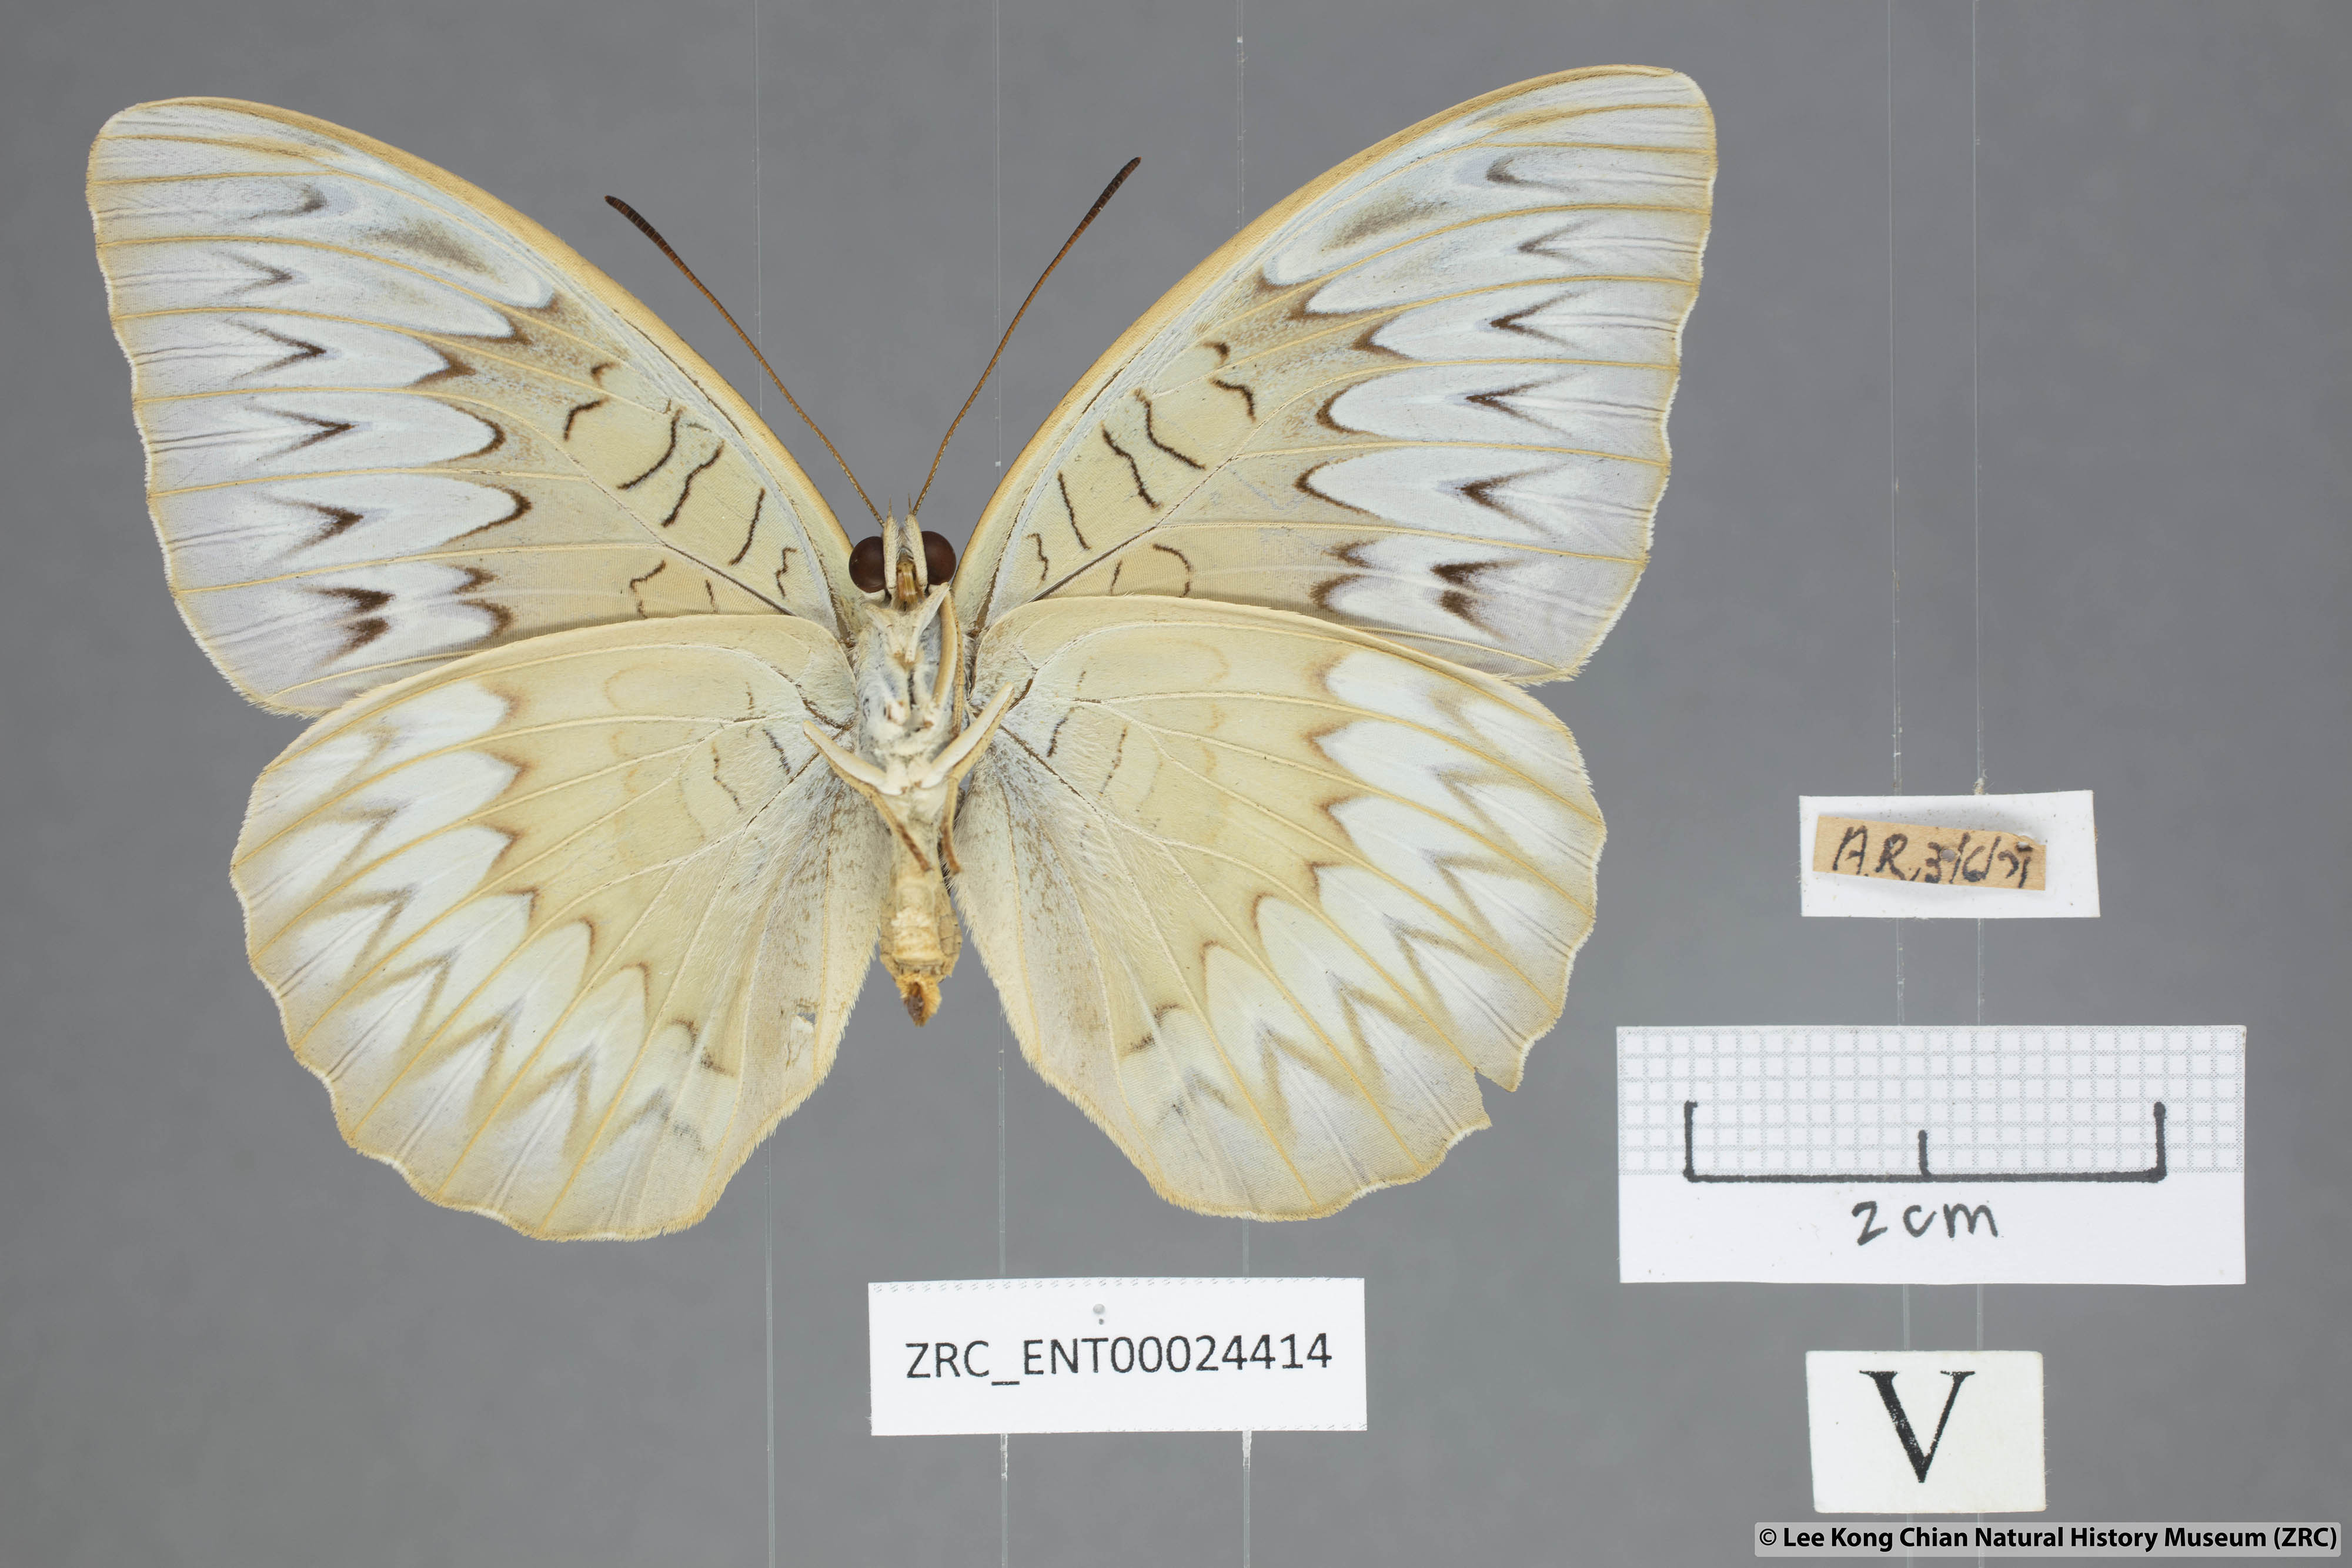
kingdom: Animalia
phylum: Arthropoda
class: Insecta
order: Lepidoptera
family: Nymphalidae
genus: Tanaecia
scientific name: Tanaecia pelea
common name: Malay viscount
